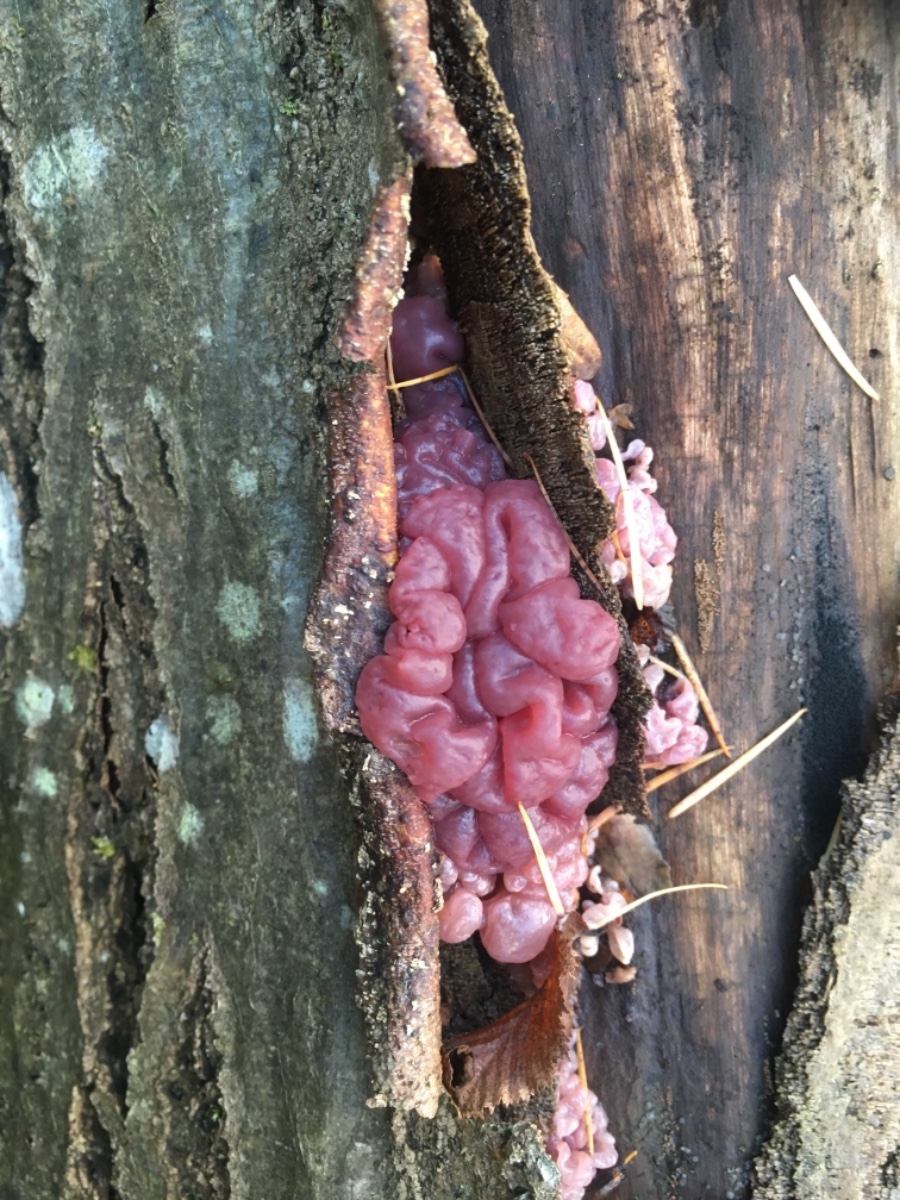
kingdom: Fungi
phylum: Ascomycota
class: Leotiomycetes
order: Helotiales
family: Gelatinodiscaceae
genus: Ascocoryne
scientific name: Ascocoryne sarcoides
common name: rødlilla sejskive
